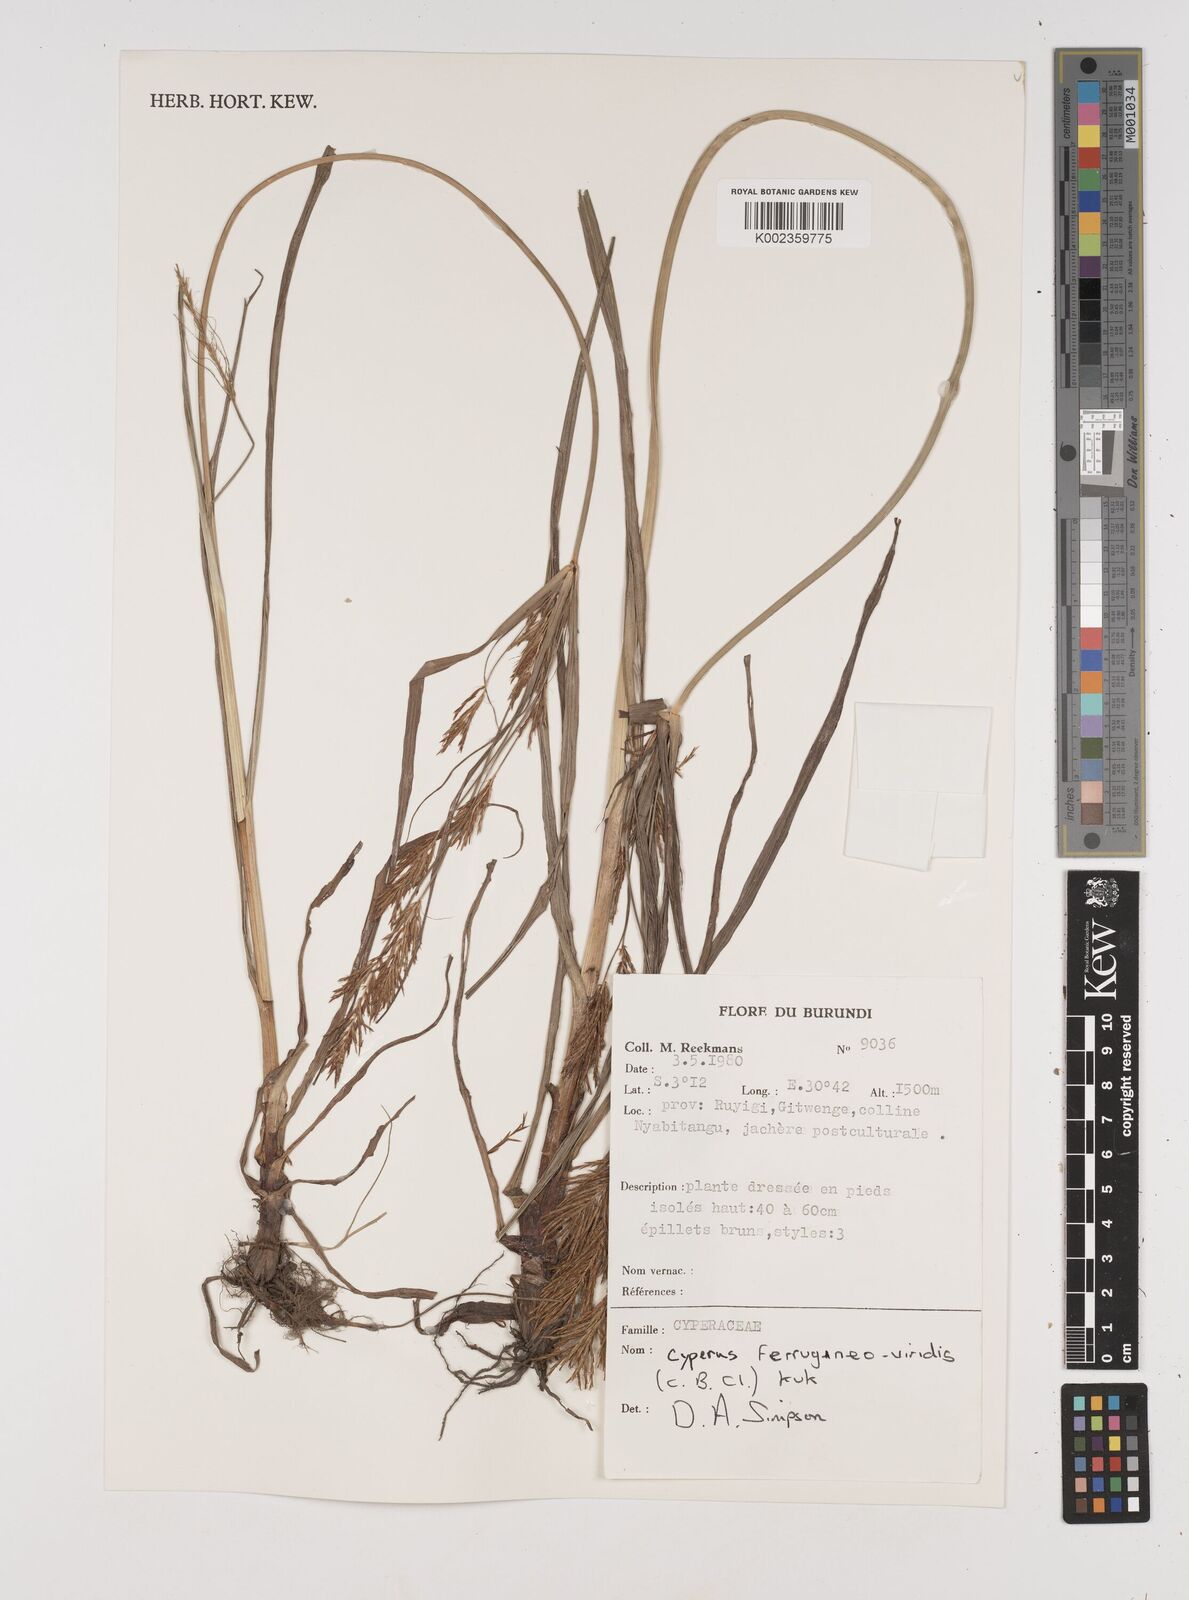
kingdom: Plantae
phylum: Tracheophyta
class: Liliopsida
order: Poales
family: Cyperaceae
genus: Cyperus
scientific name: Cyperus ferrugineoviridis
